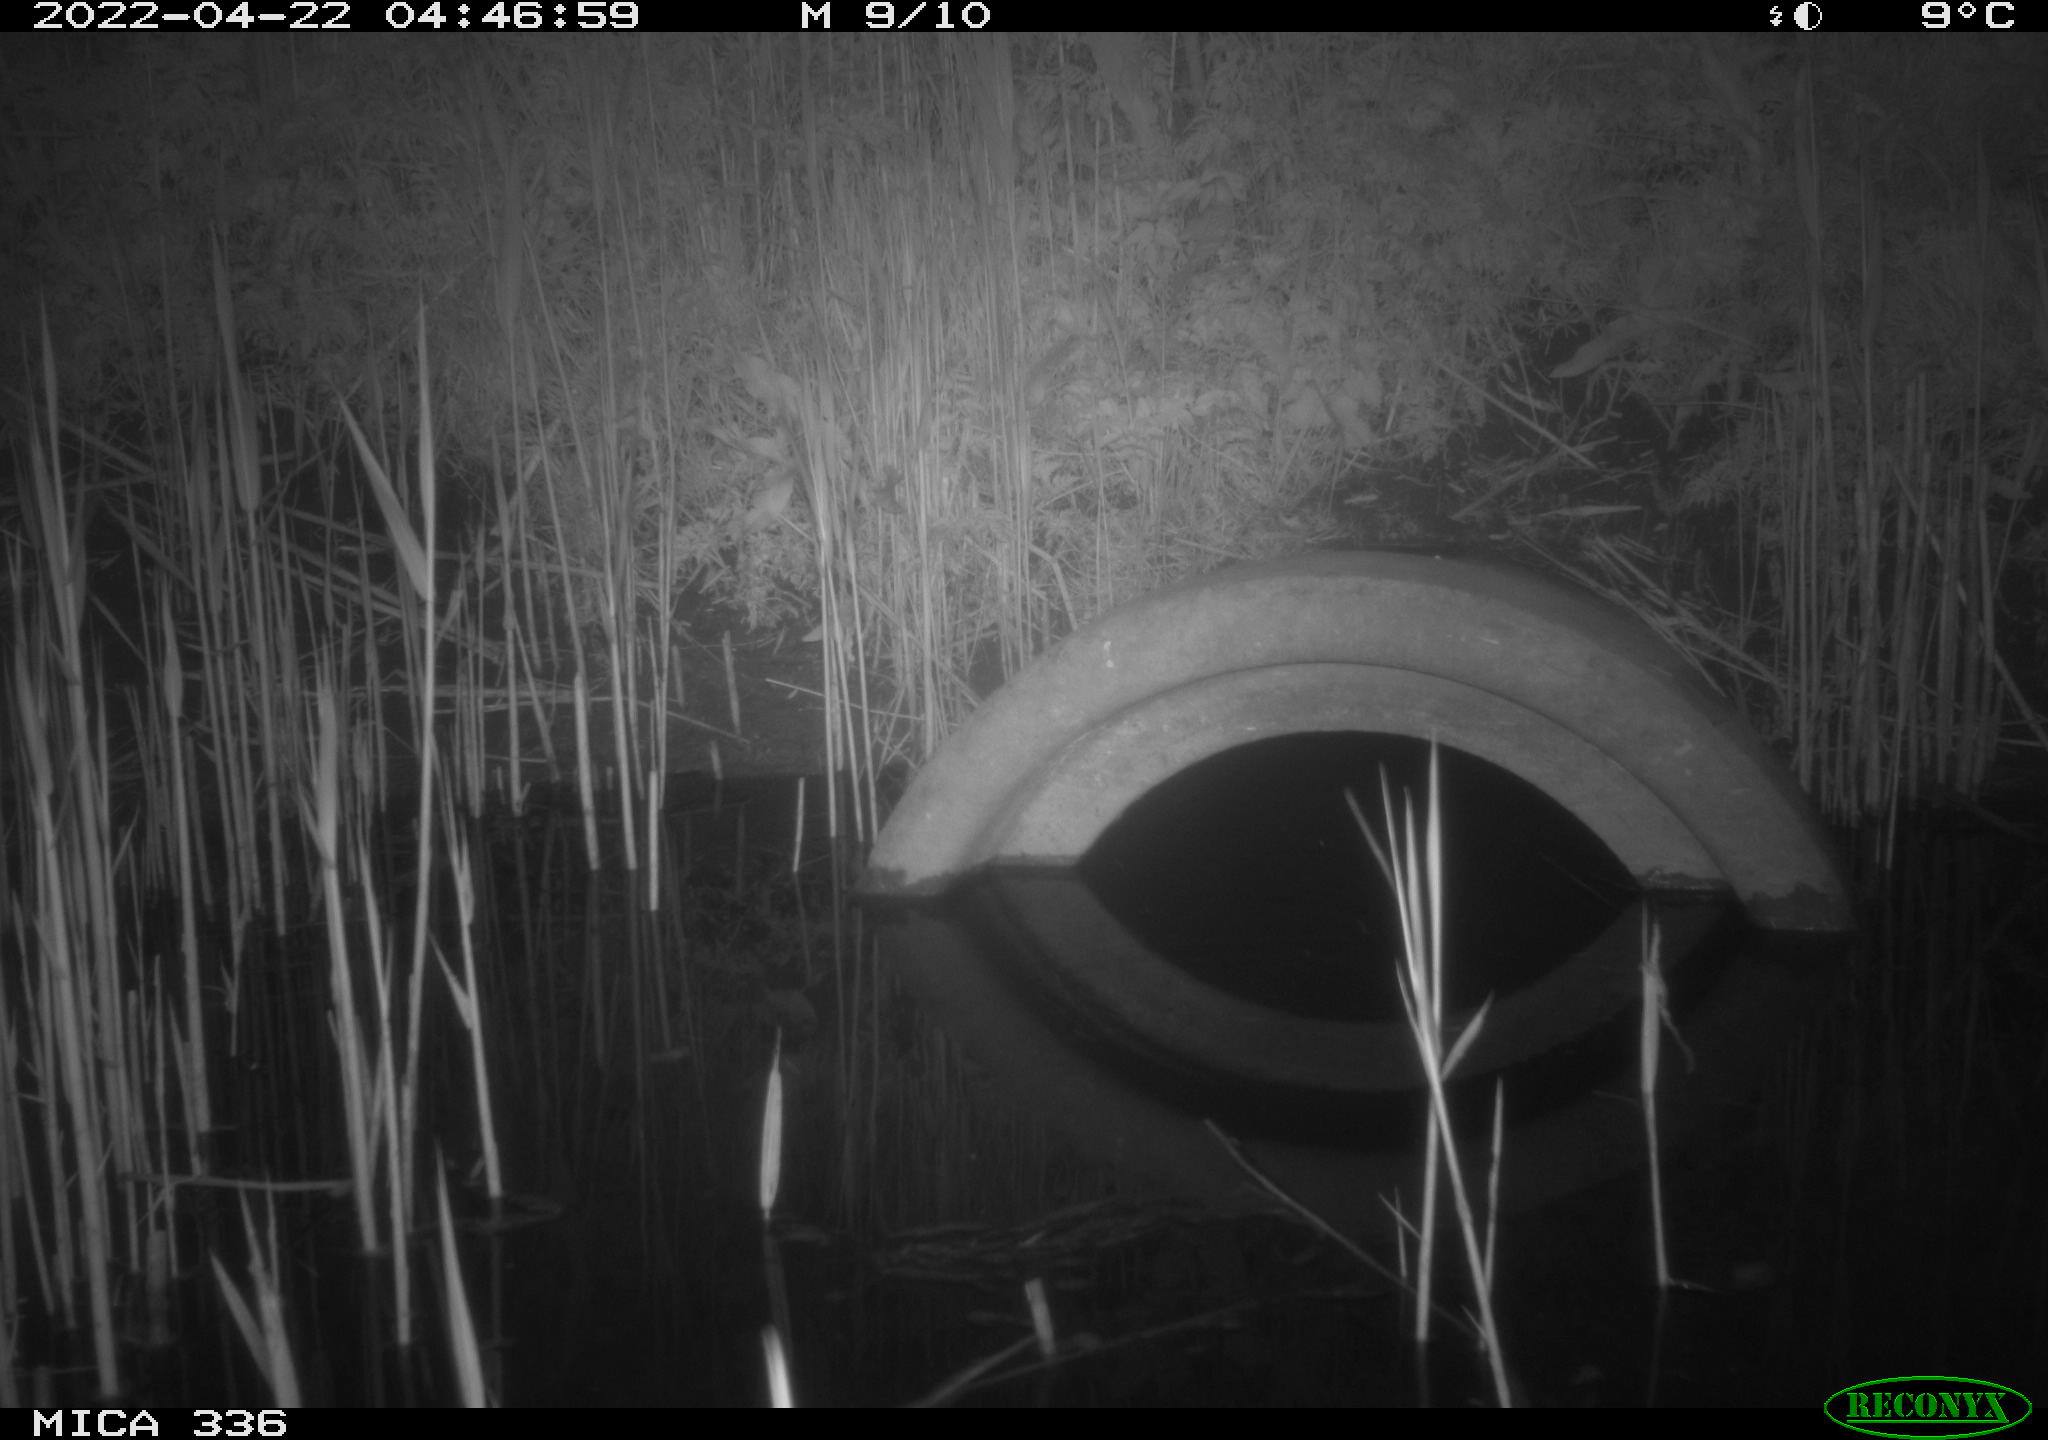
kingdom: Animalia
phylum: Chordata
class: Mammalia
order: Rodentia
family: Muridae
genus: Rattus
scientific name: Rattus norvegicus
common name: Brown rat
